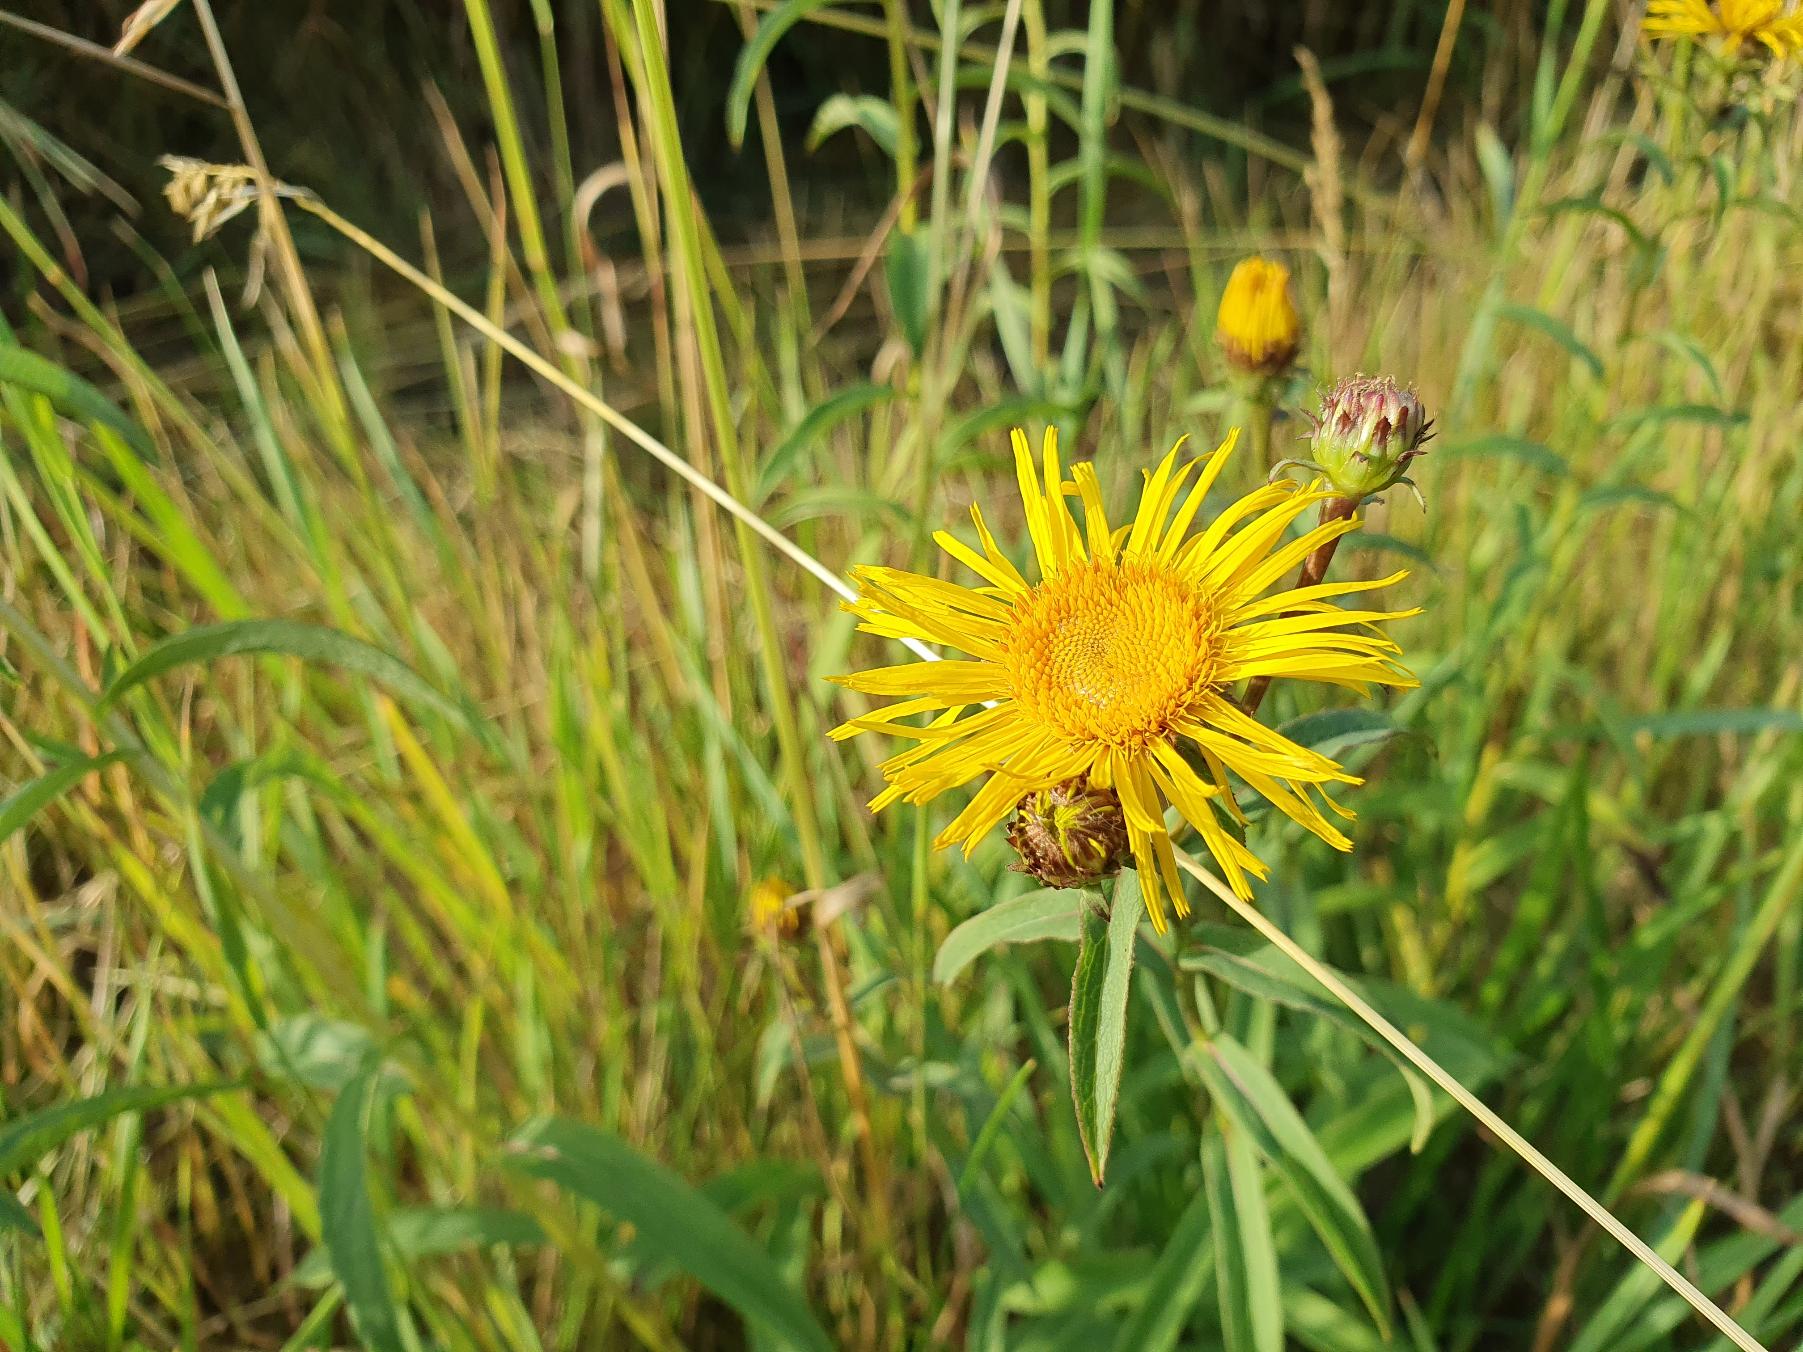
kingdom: Plantae
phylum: Tracheophyta
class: Magnoliopsida
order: Asterales
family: Asteraceae
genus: Pentanema
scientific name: Pentanema salicinum
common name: Pile-alant
